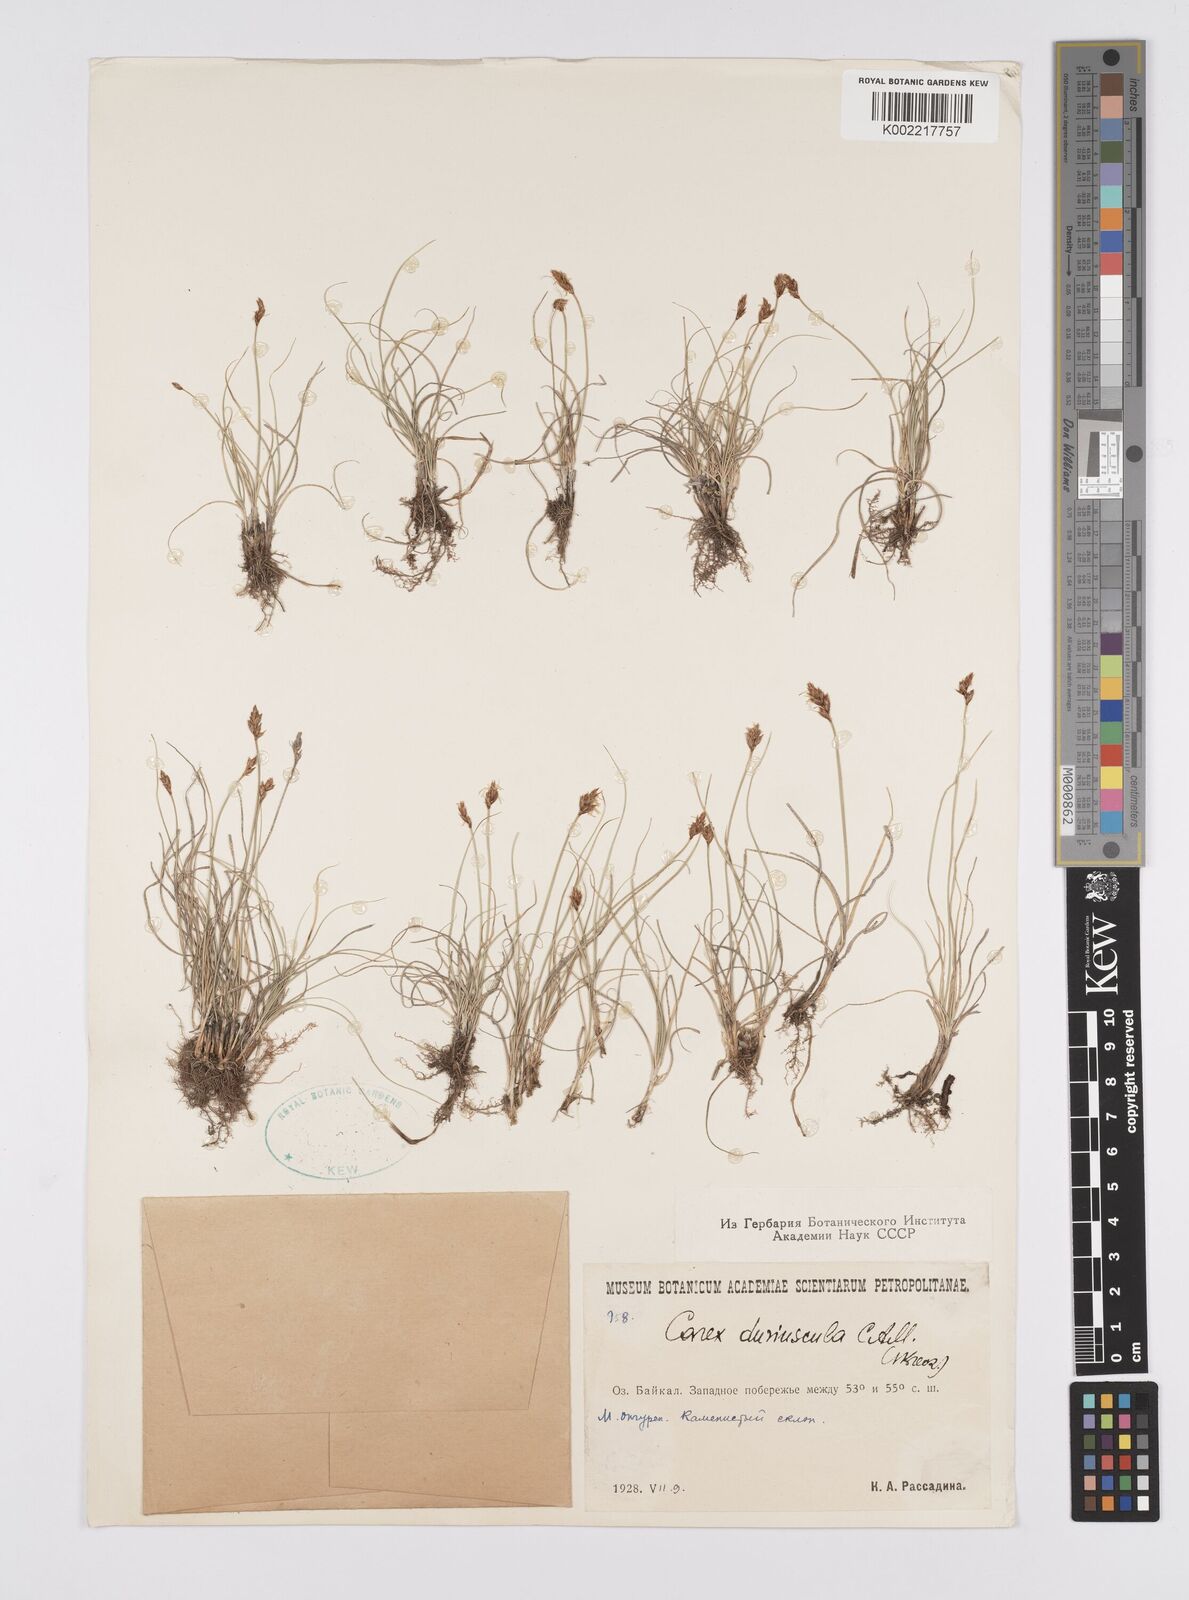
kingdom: Plantae
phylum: Tracheophyta
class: Liliopsida
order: Poales
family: Cyperaceae
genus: Carex
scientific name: Carex stenophylla
